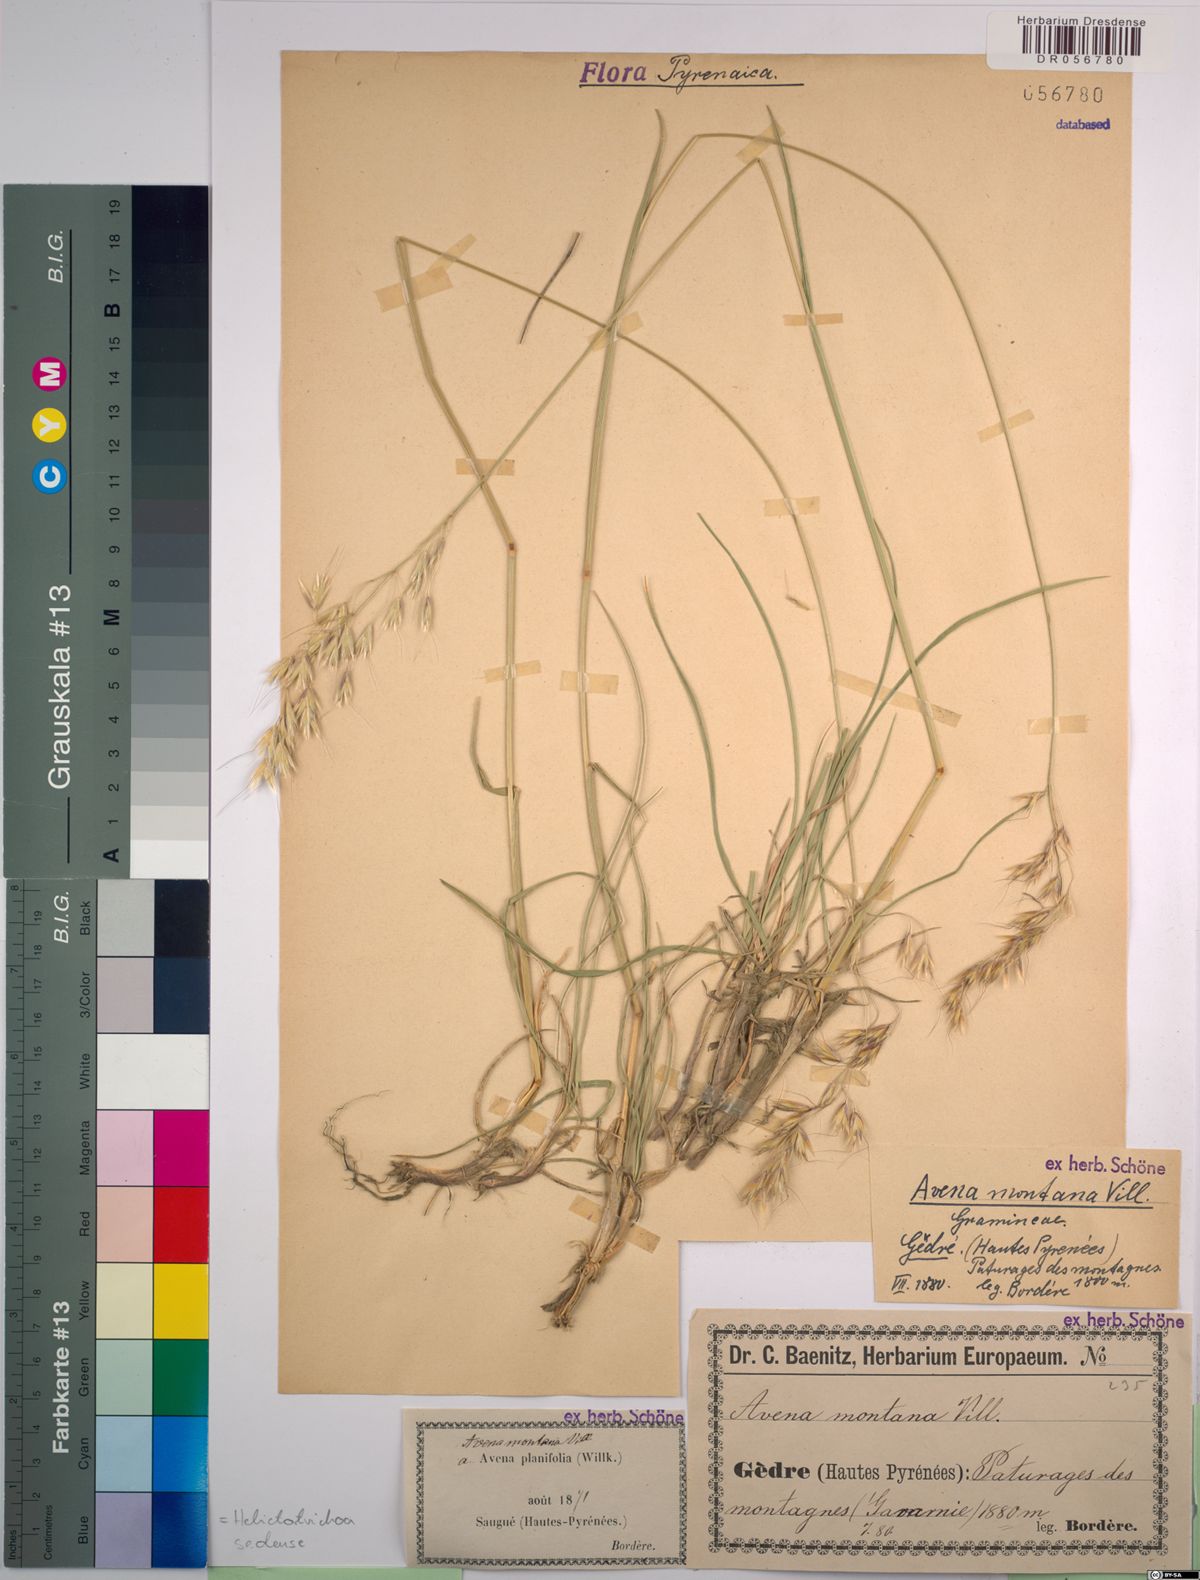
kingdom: Plantae
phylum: Tracheophyta
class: Liliopsida
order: Poales
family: Poaceae
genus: Helictotrichon
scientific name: Helictotrichon sedenense
